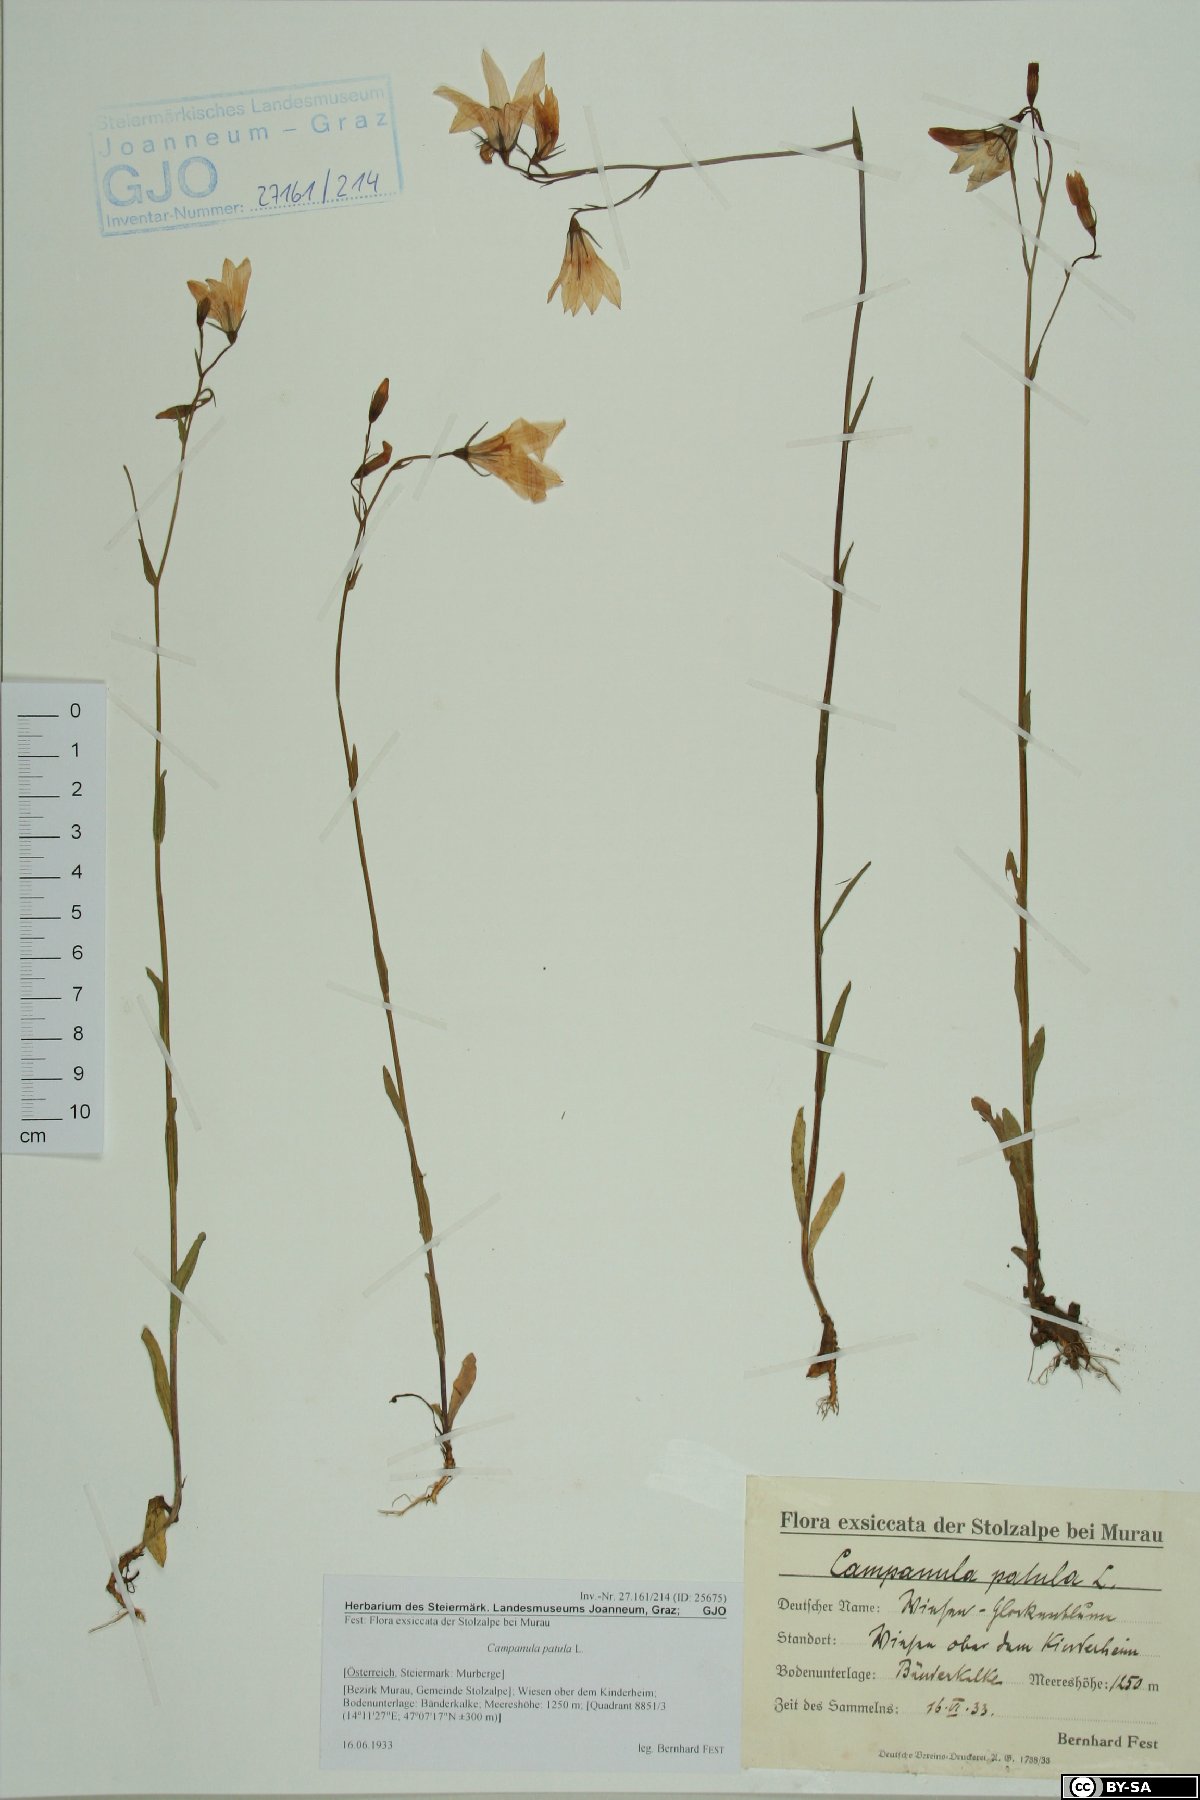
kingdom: Plantae
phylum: Tracheophyta
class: Magnoliopsida
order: Asterales
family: Campanulaceae
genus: Campanula
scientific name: Campanula patula
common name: Spreading bellflower
